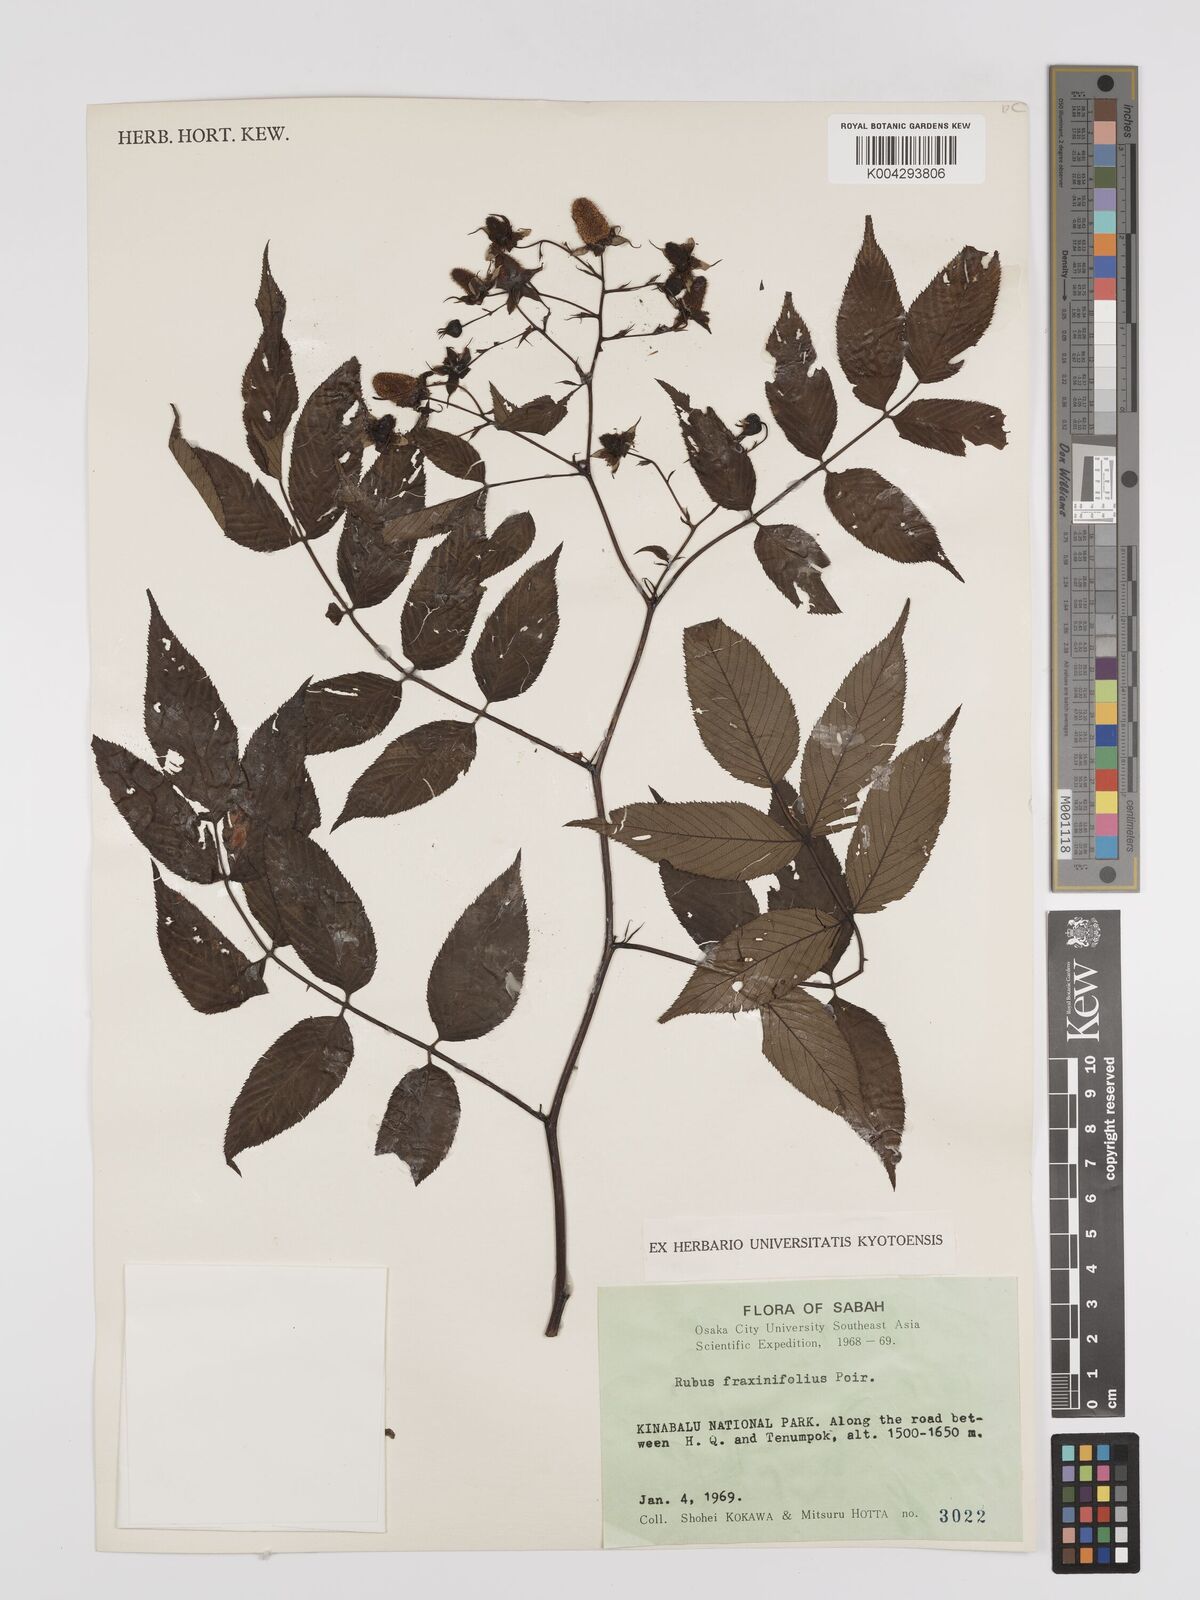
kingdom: Plantae
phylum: Tracheophyta
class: Magnoliopsida
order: Rosales
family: Rosaceae
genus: Rubus
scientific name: Rubus fraxinifolius
